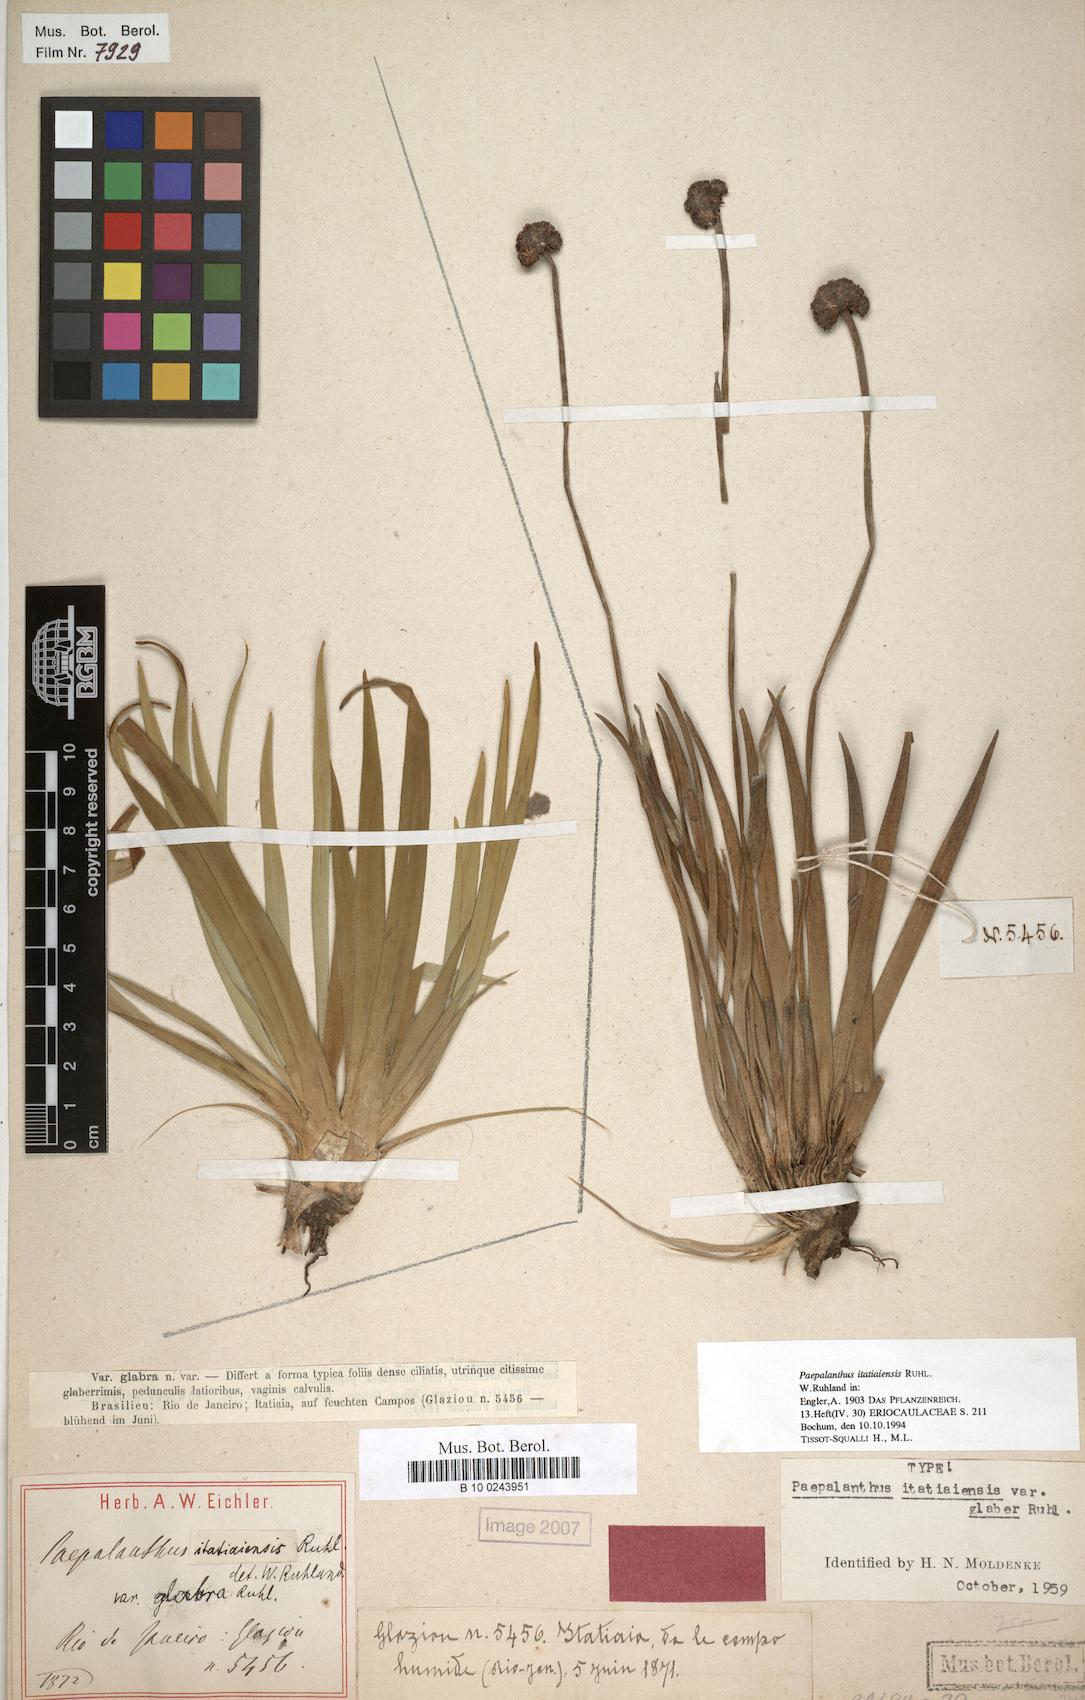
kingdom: Plantae
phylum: Tracheophyta
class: Liliopsida
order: Poales
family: Eriocaulaceae
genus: Paepalanthus
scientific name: Paepalanthus itatiaiensis
